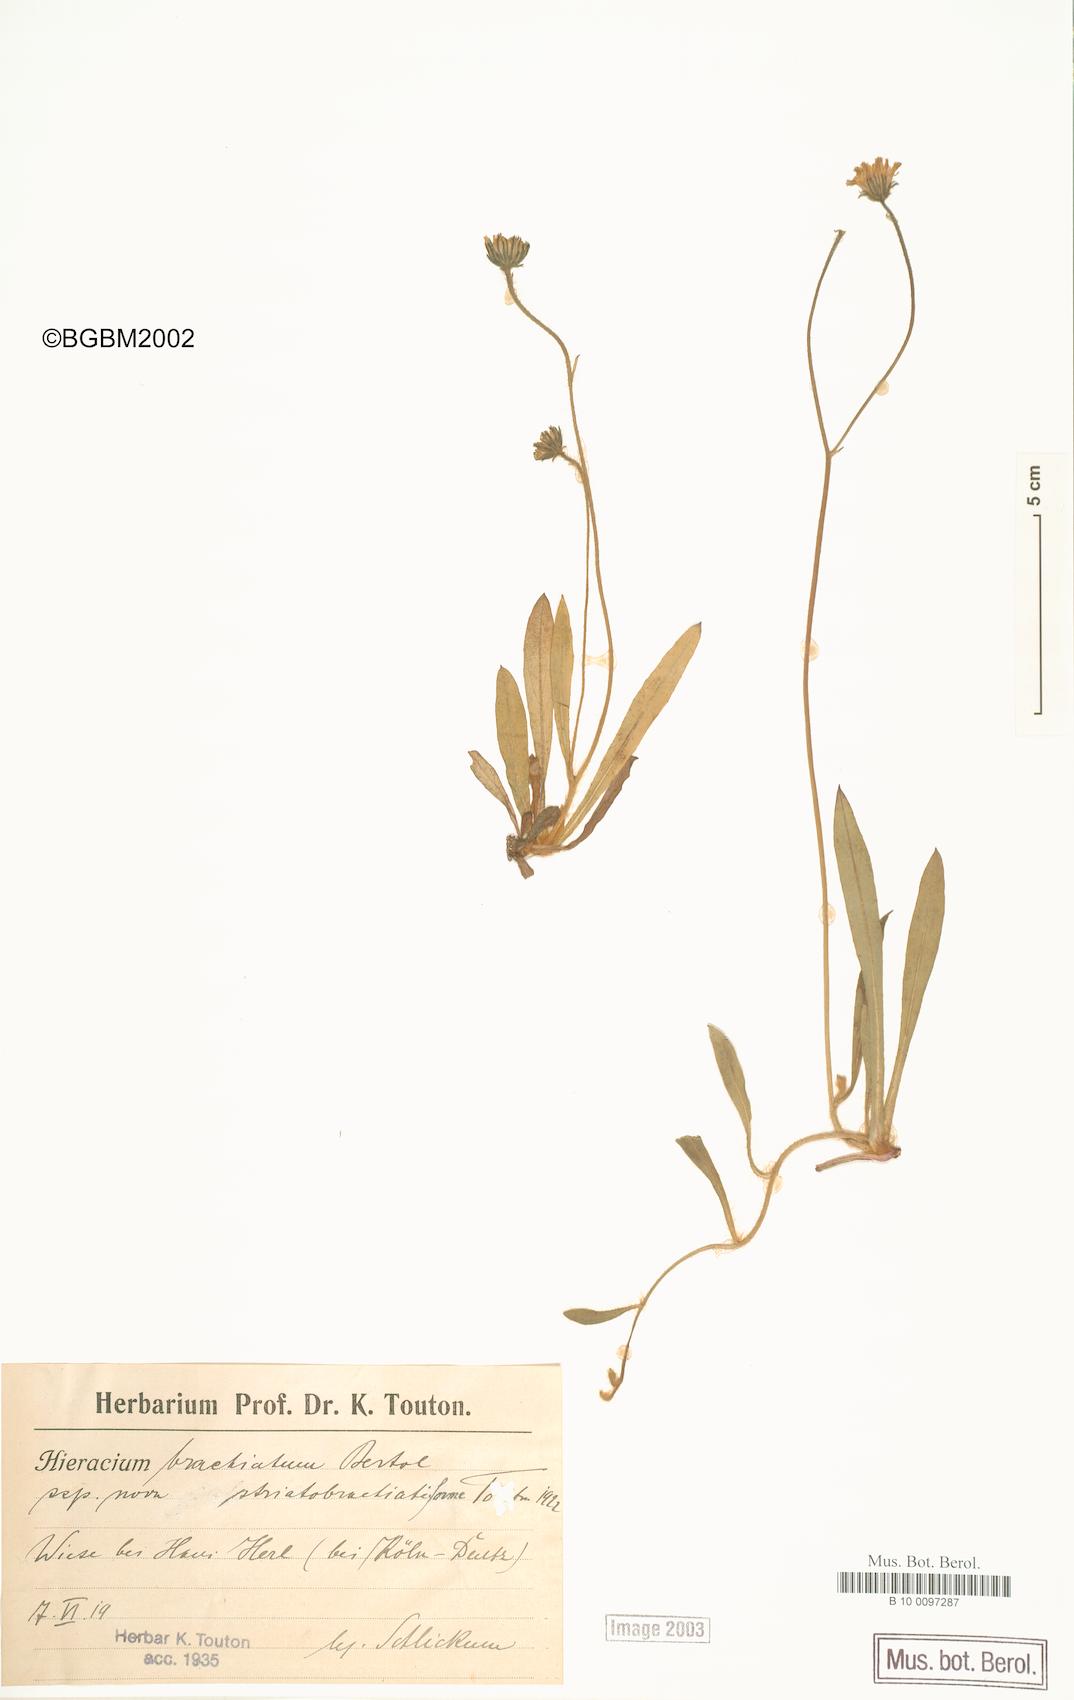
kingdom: Plantae
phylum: Tracheophyta
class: Magnoliopsida
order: Asterales
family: Asteraceae
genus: Pilosella
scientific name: Pilosella acutifolia
